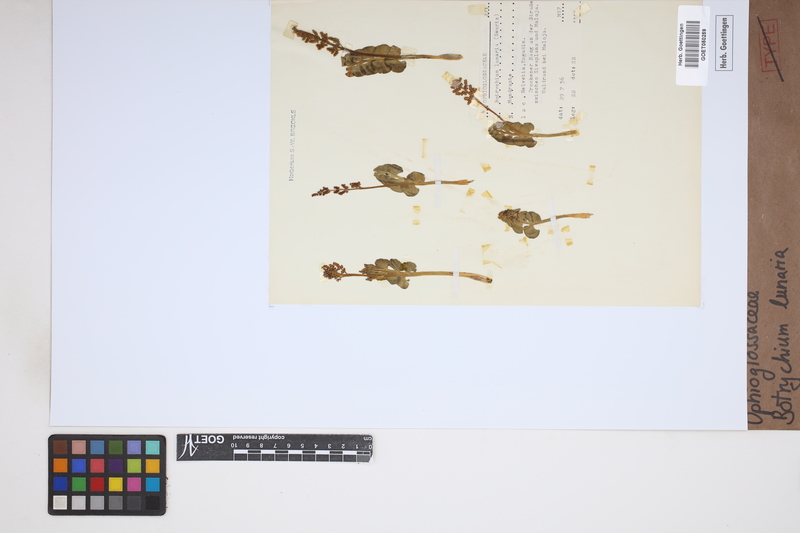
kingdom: Plantae
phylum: Tracheophyta
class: Polypodiopsida
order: Ophioglossales
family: Ophioglossaceae
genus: Botrychium
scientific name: Botrychium lunaria
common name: Moonwort
